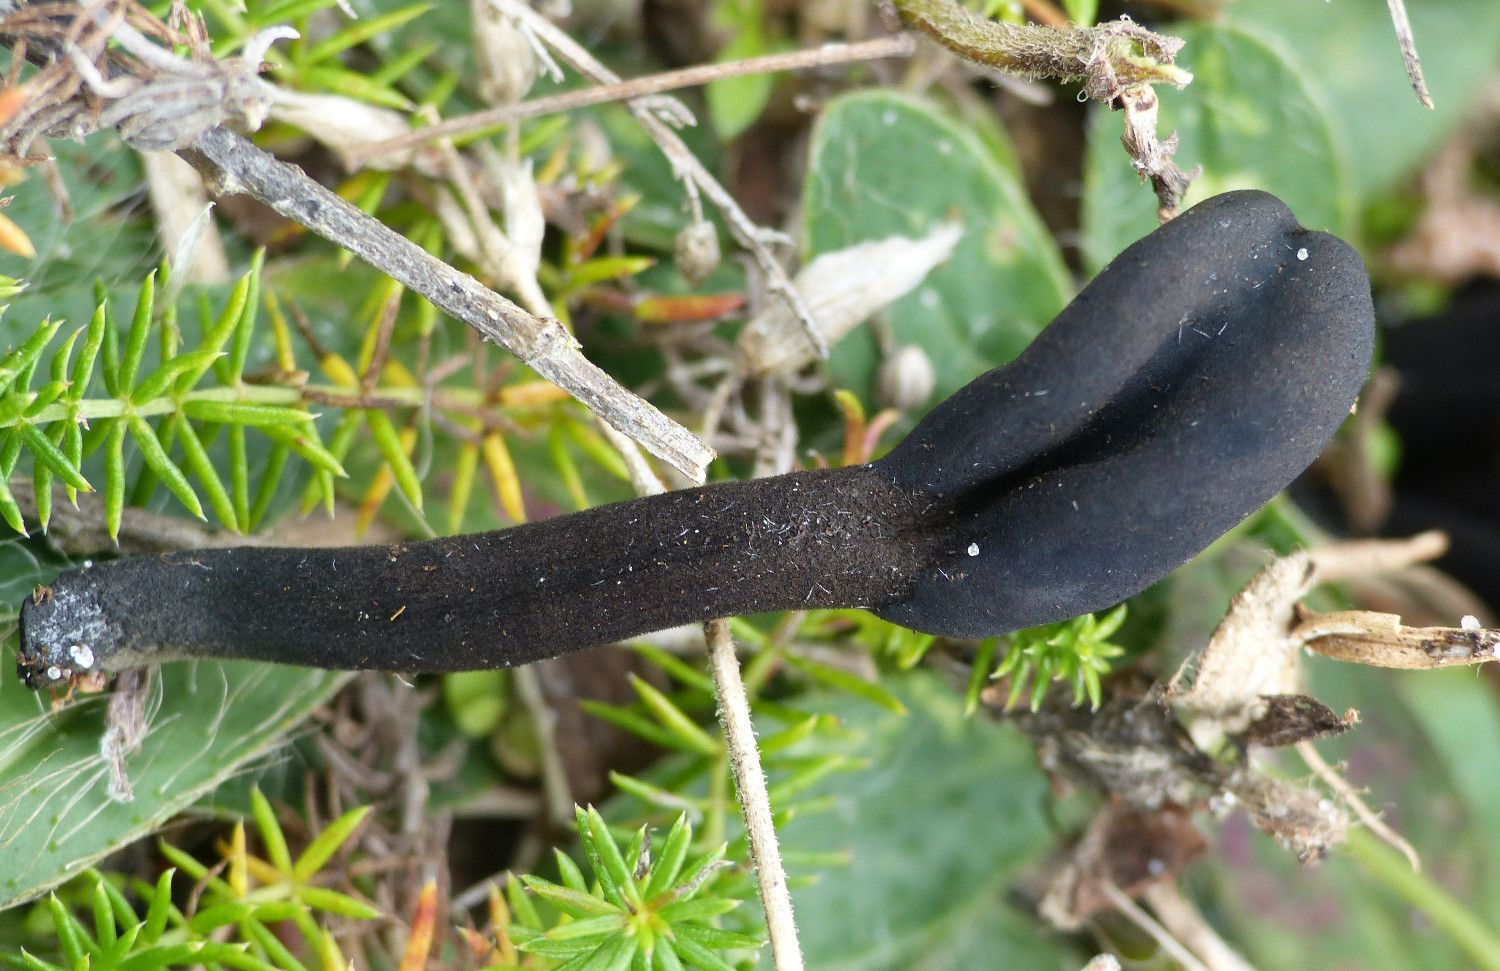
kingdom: Fungi
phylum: Ascomycota
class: Geoglossomycetes
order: Geoglossales
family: Geoglossaceae
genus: Trichoglossum
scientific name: Trichoglossum
